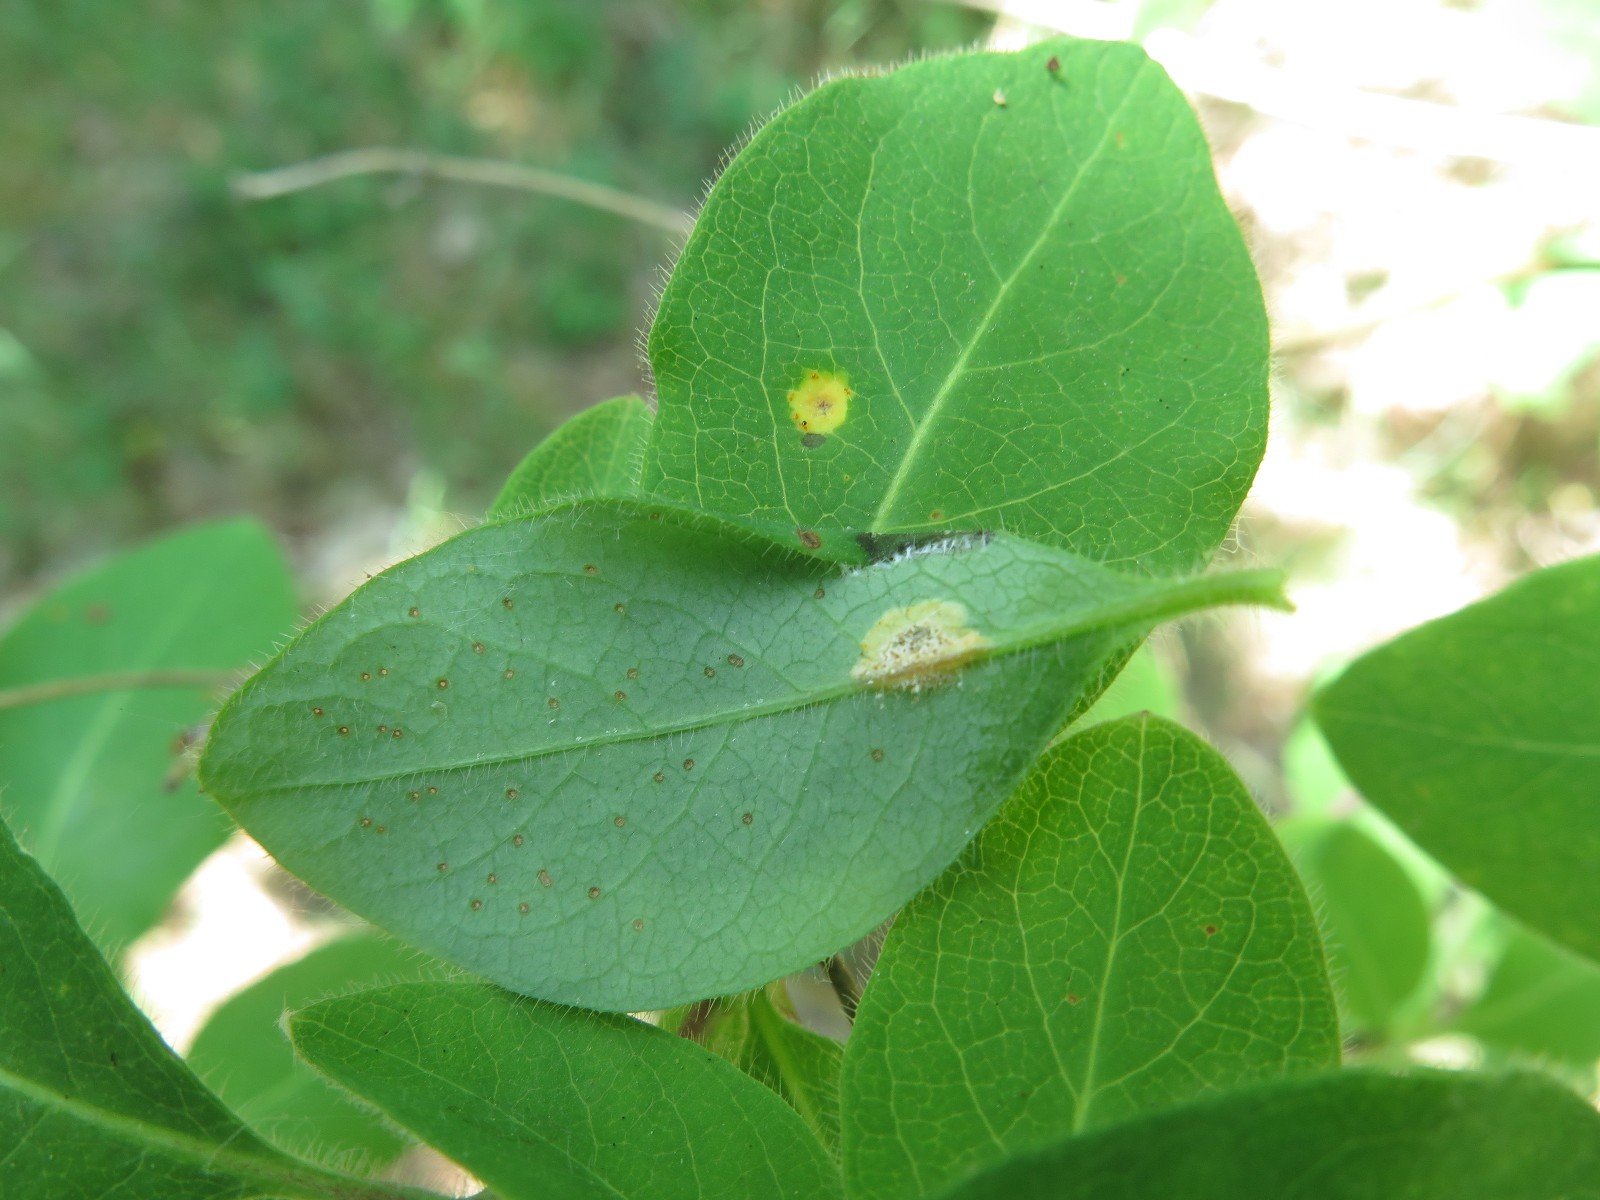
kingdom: Fungi
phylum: Basidiomycota
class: Pucciniomycetes
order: Pucciniales
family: Pucciniaceae
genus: Puccinia
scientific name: Puccinia festucae
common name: gedeblad-tvecellerust
